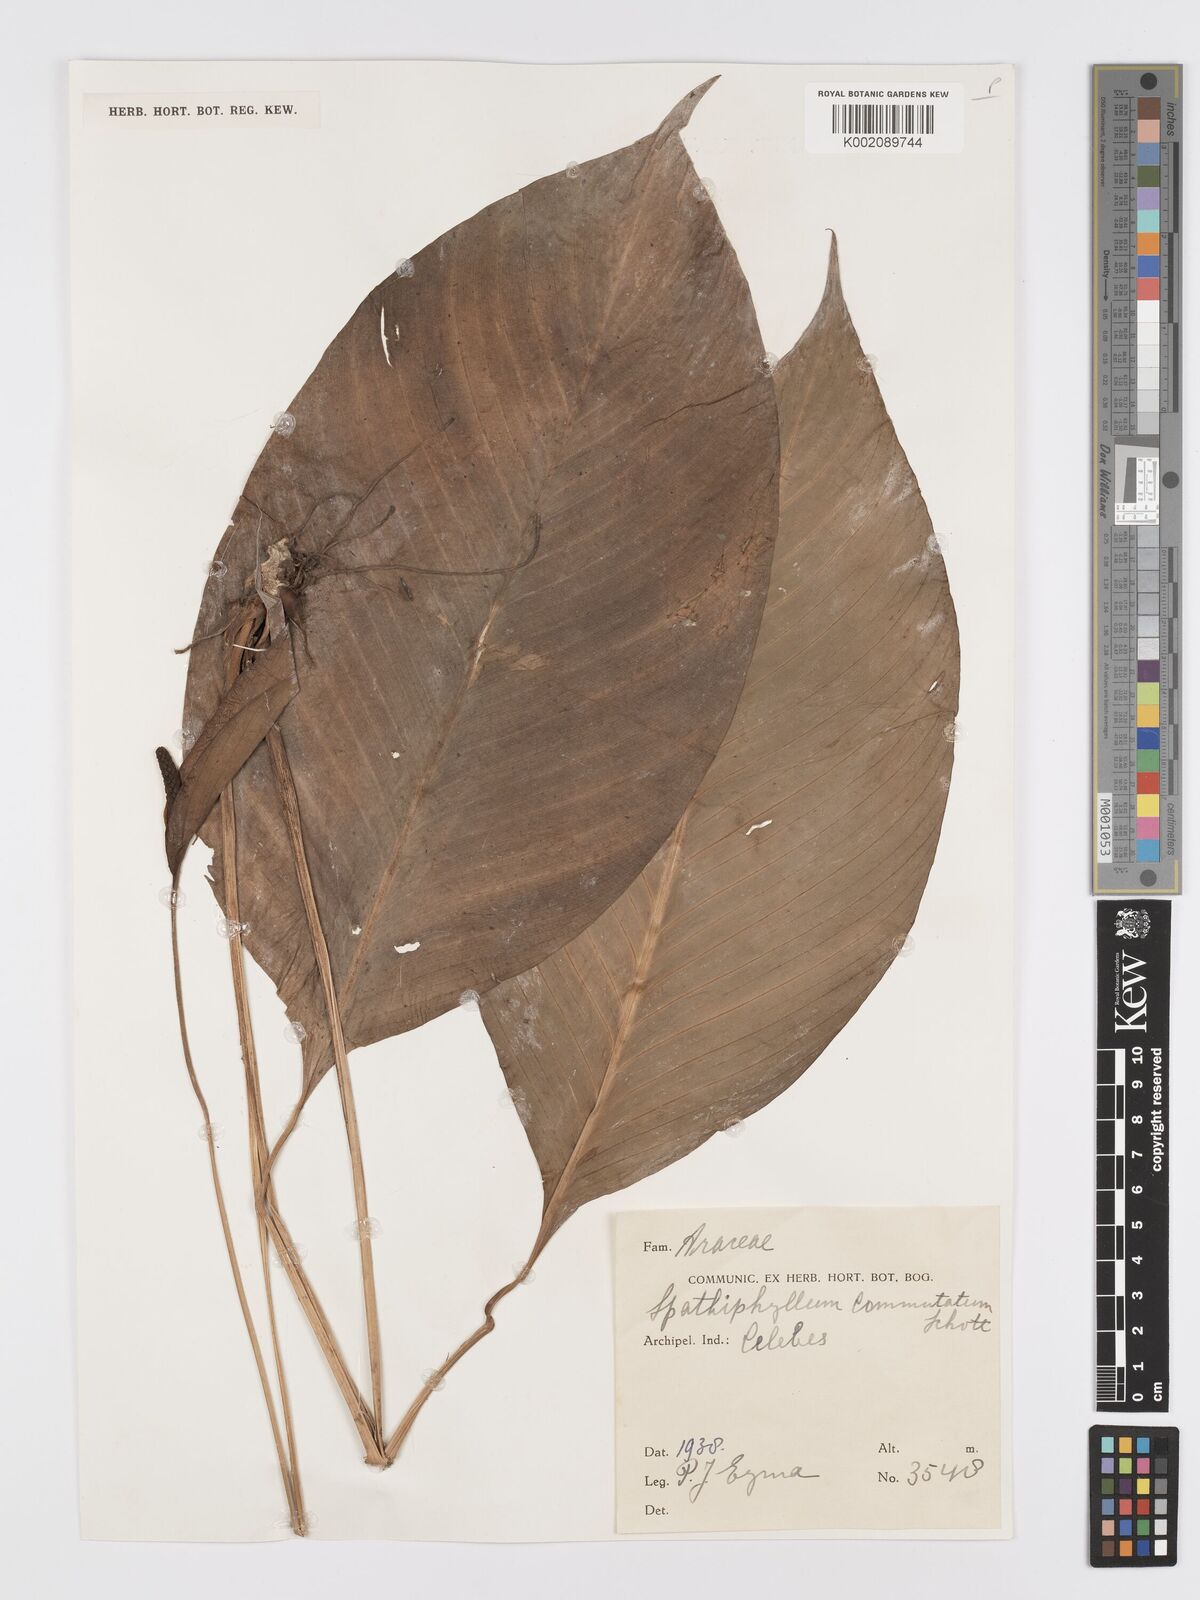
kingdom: Plantae
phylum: Tracheophyta
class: Liliopsida
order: Alismatales
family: Araceae
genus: Spathiphyllum
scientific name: Spathiphyllum commutatum
